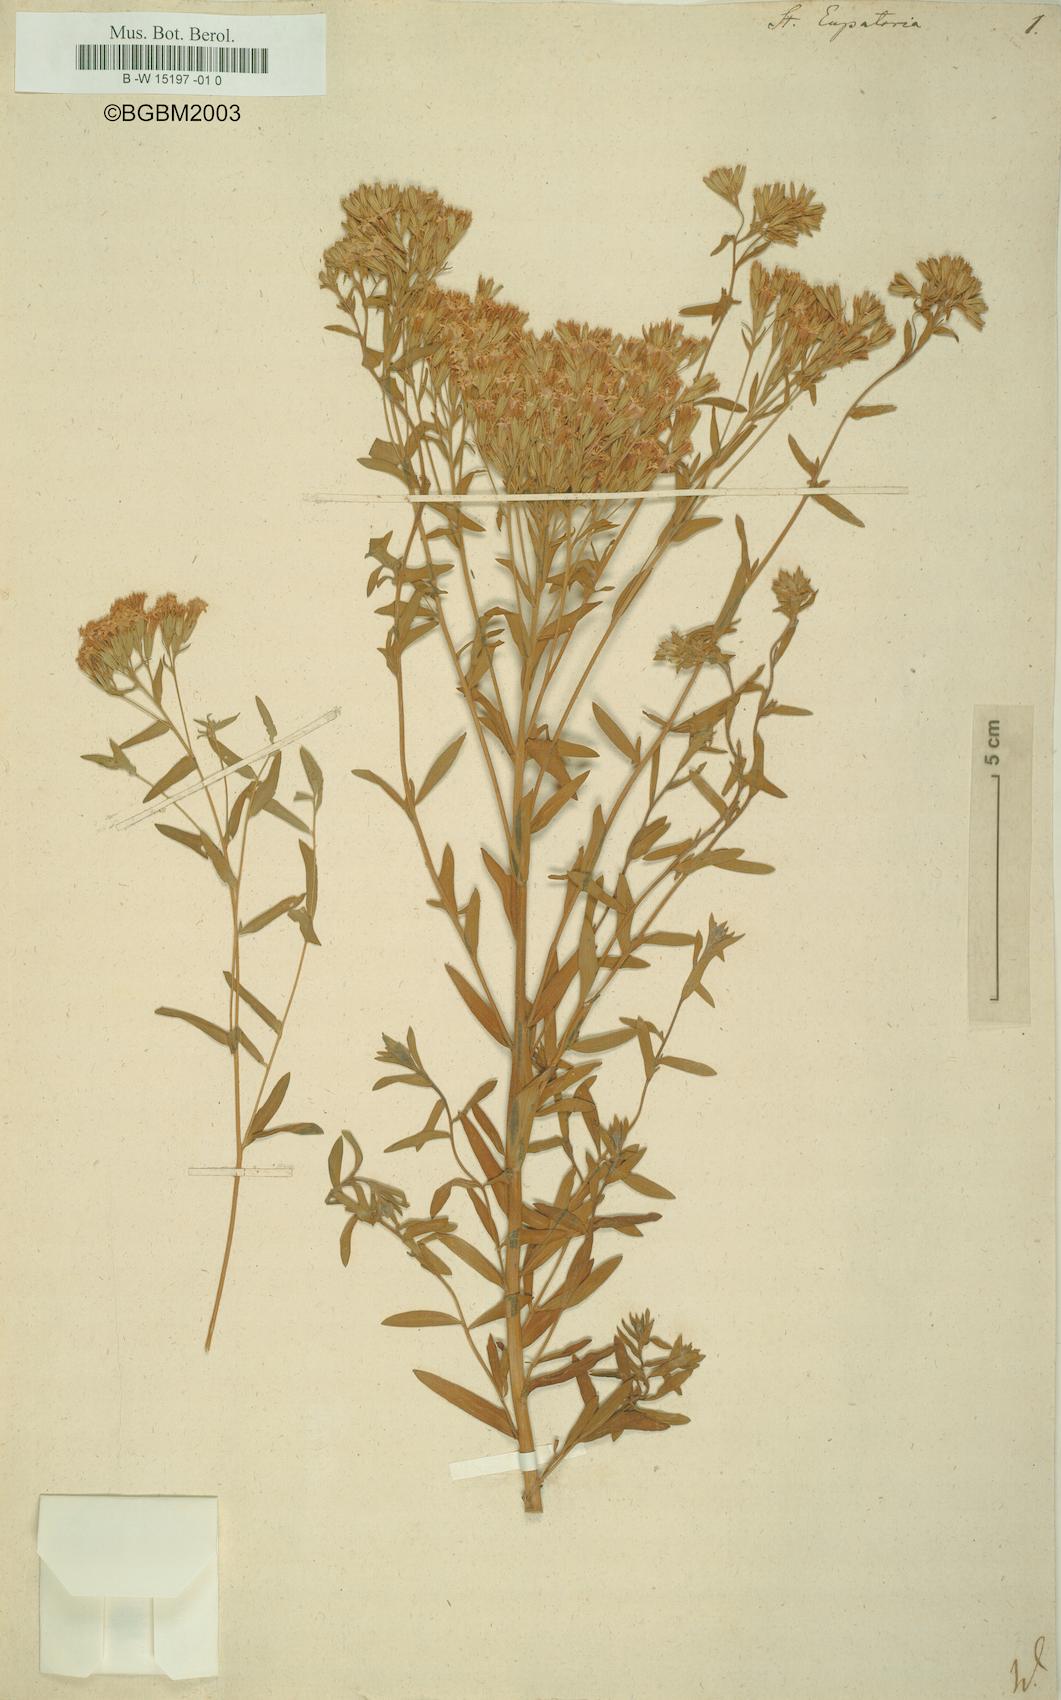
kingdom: Plantae
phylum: Tracheophyta
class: Magnoliopsida
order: Asterales
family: Asteraceae
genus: Stevia
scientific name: Stevia eupatoria
